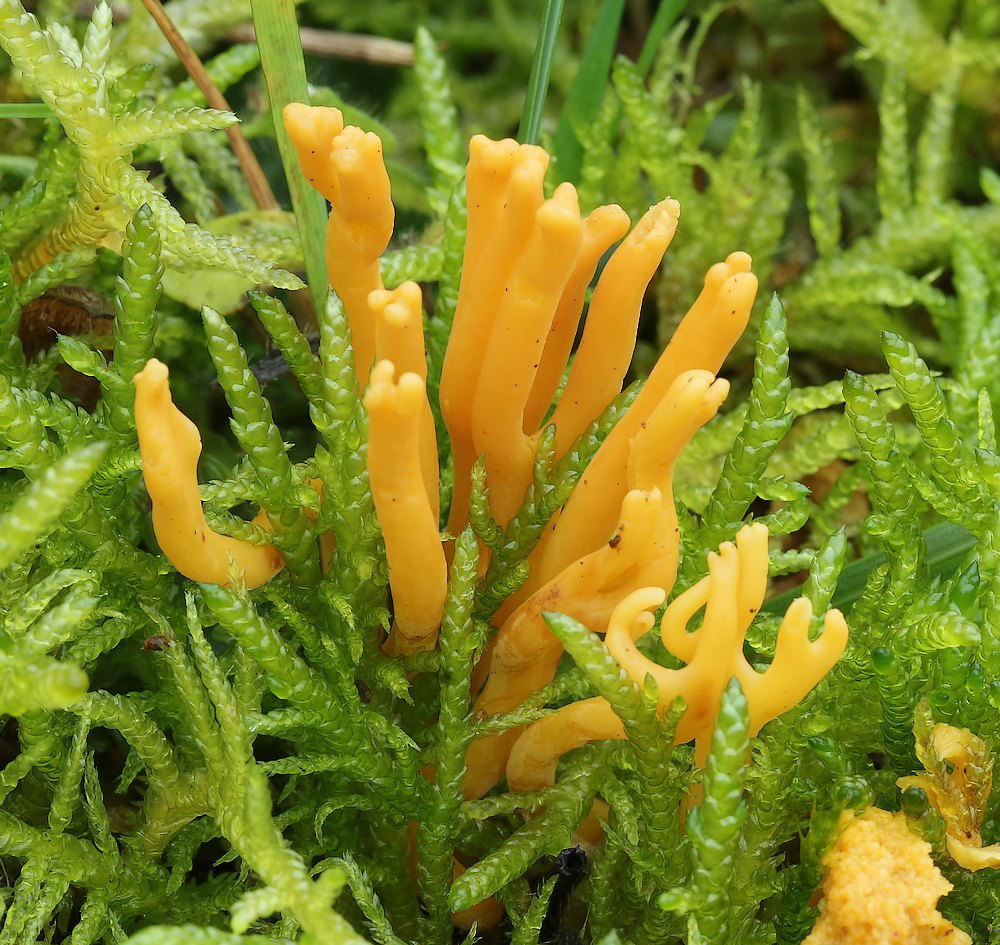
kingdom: Fungi
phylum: Basidiomycota
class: Agaricomycetes
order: Agaricales
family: Clavariaceae
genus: Clavulinopsis
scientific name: Clavulinopsis corniculata
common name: eng-køllesvamp
